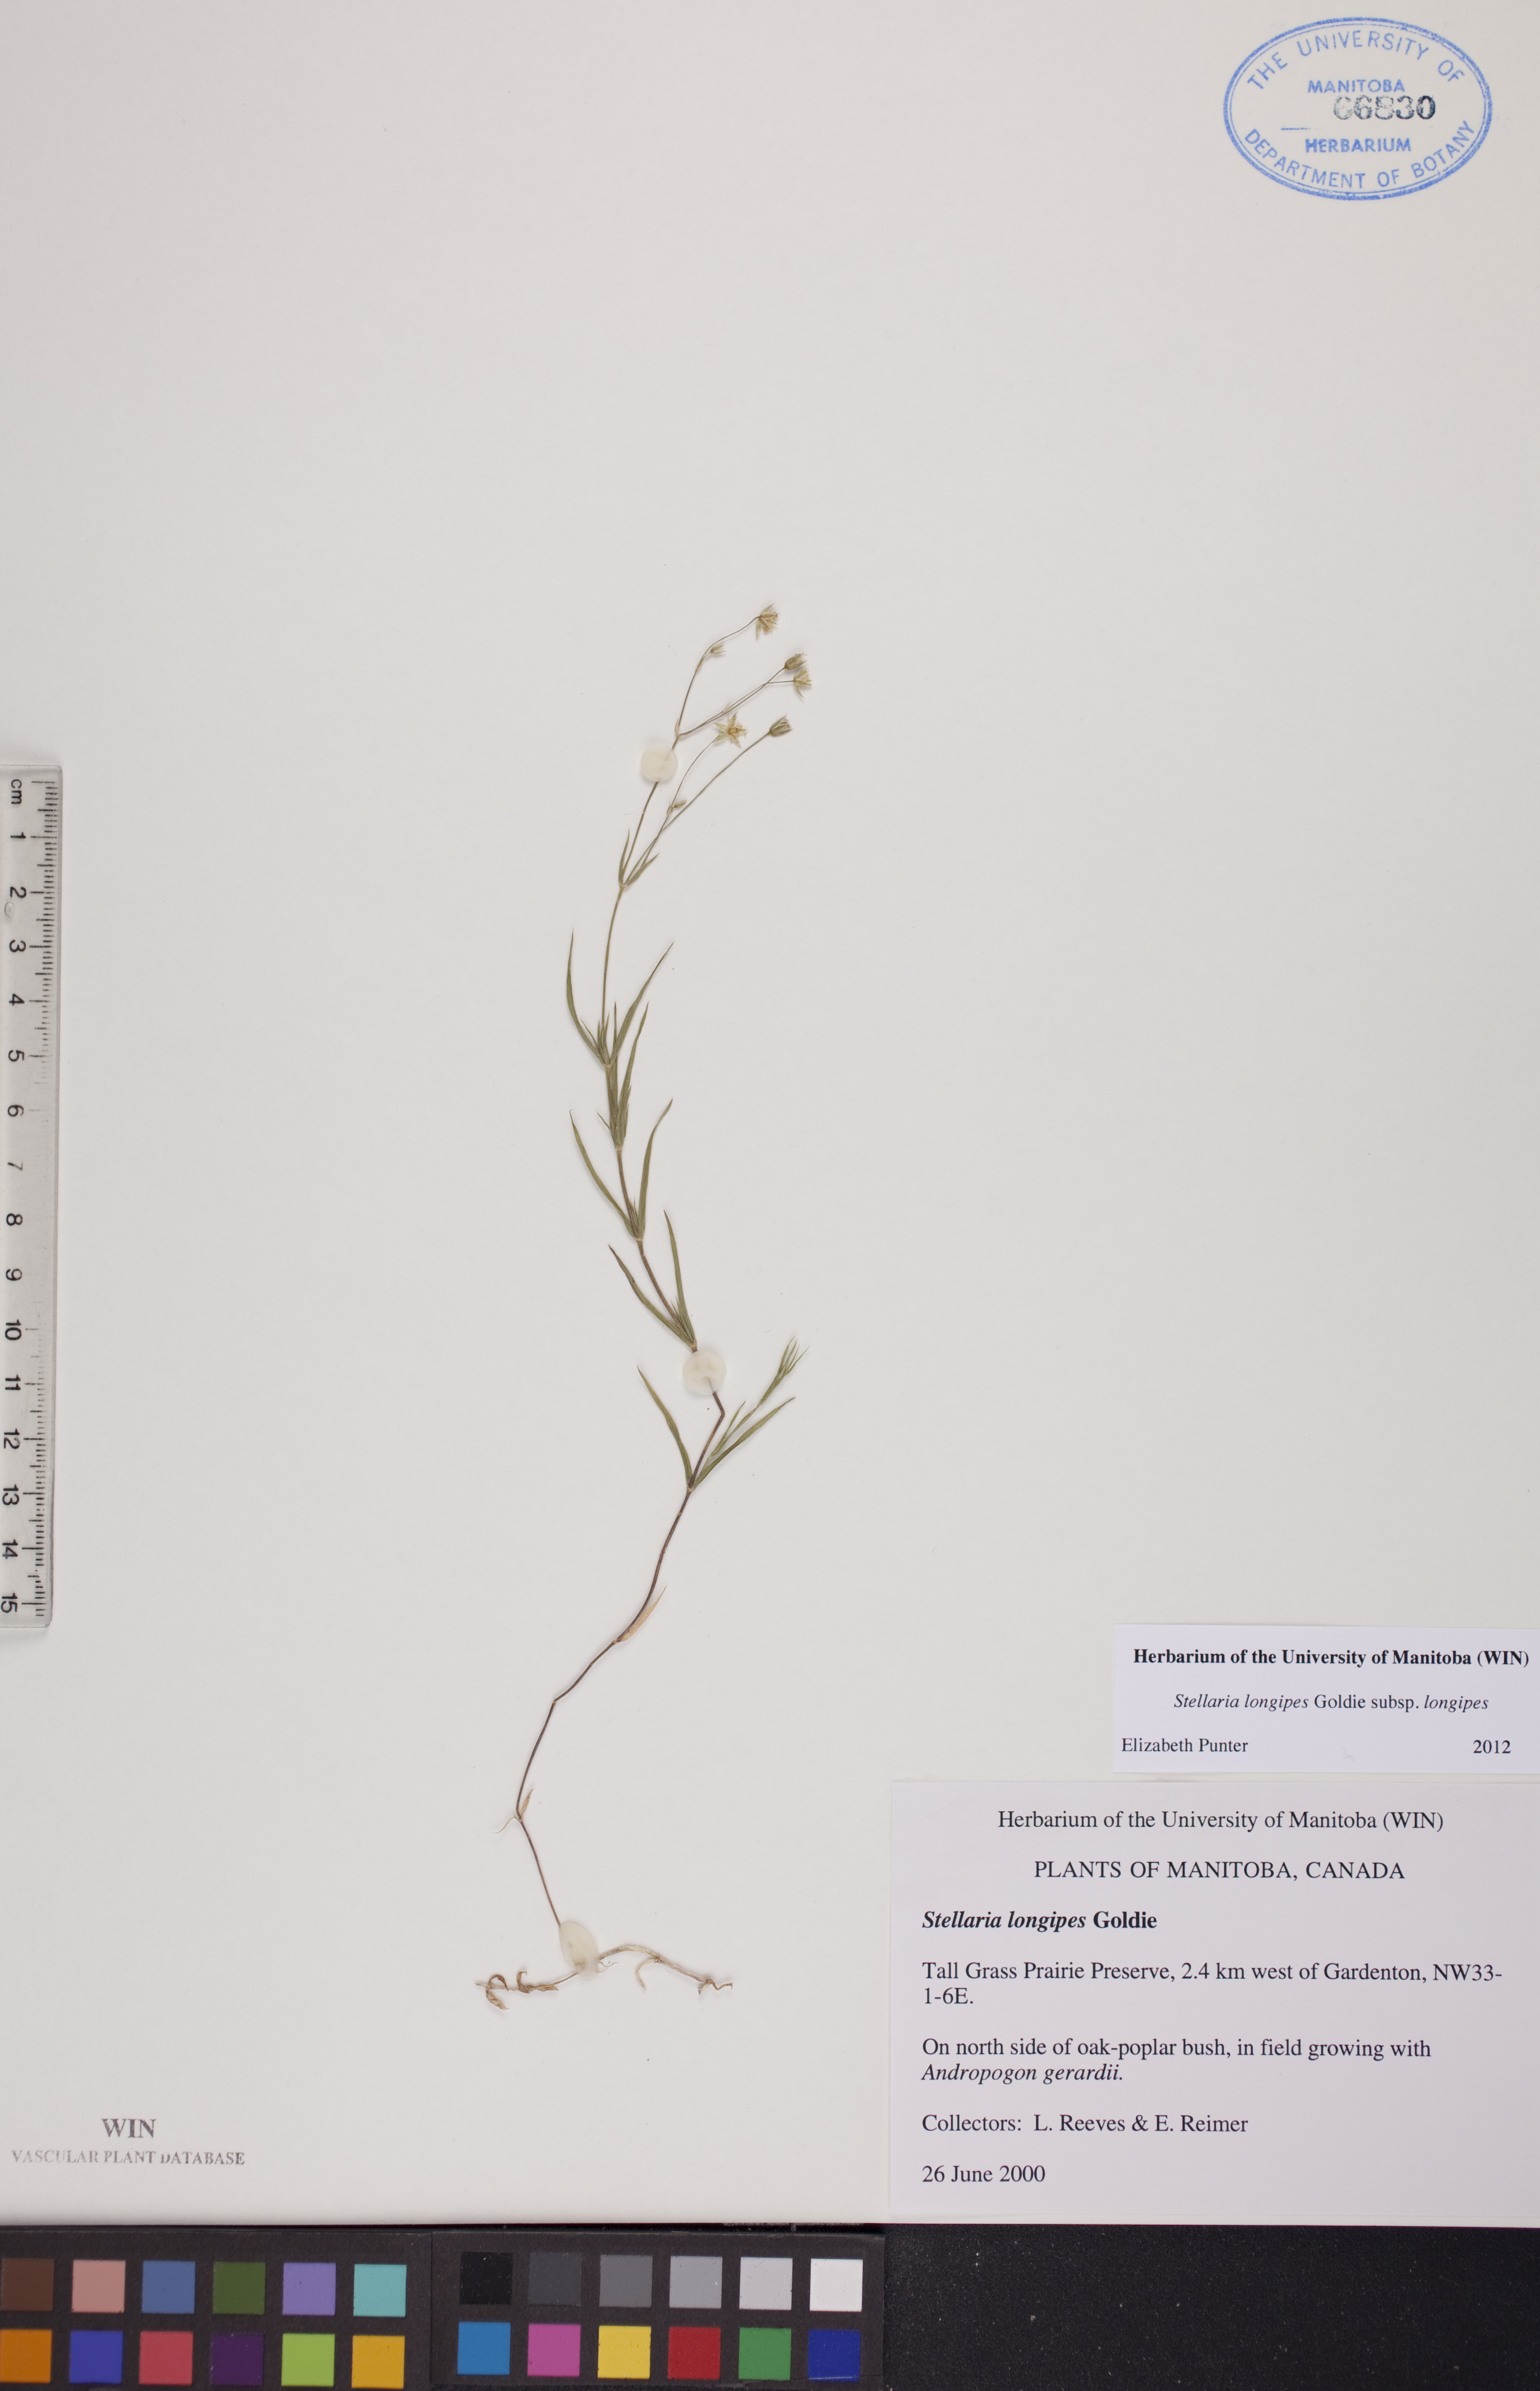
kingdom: Plantae
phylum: Tracheophyta
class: Magnoliopsida
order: Caryophyllales
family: Caryophyllaceae
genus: Stellaria
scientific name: Stellaria longipes
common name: Goldie's starwort
